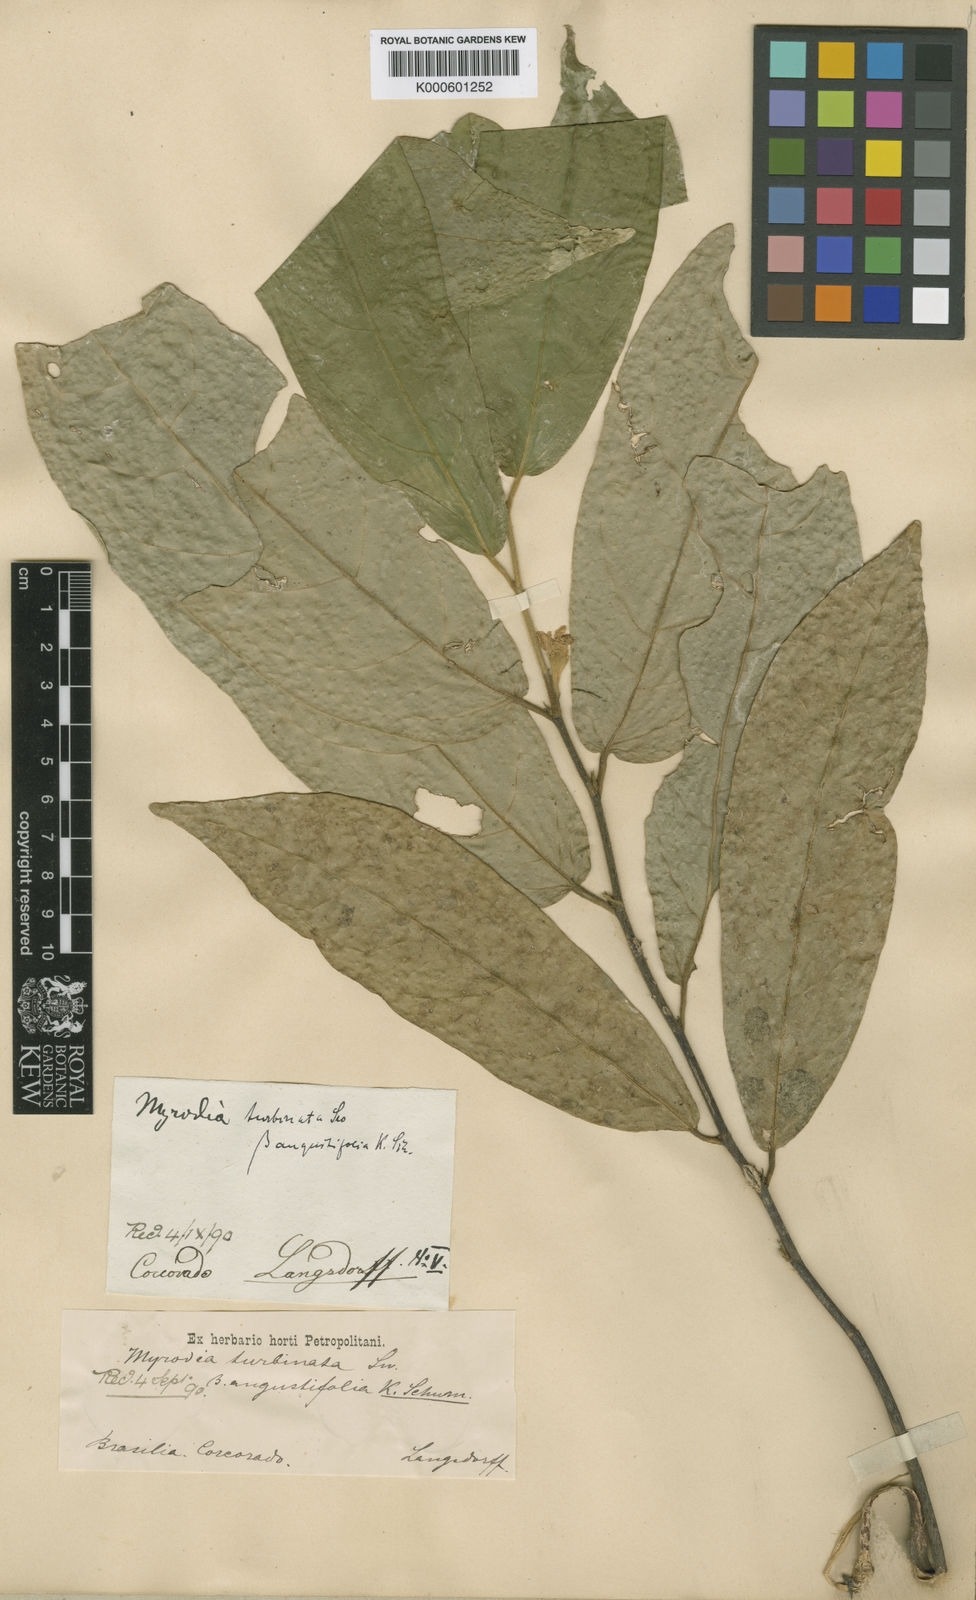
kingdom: Plantae
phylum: Tracheophyta
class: Magnoliopsida
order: Malvales
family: Malvaceae
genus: Quararibea
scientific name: Quararibea angustifolia
